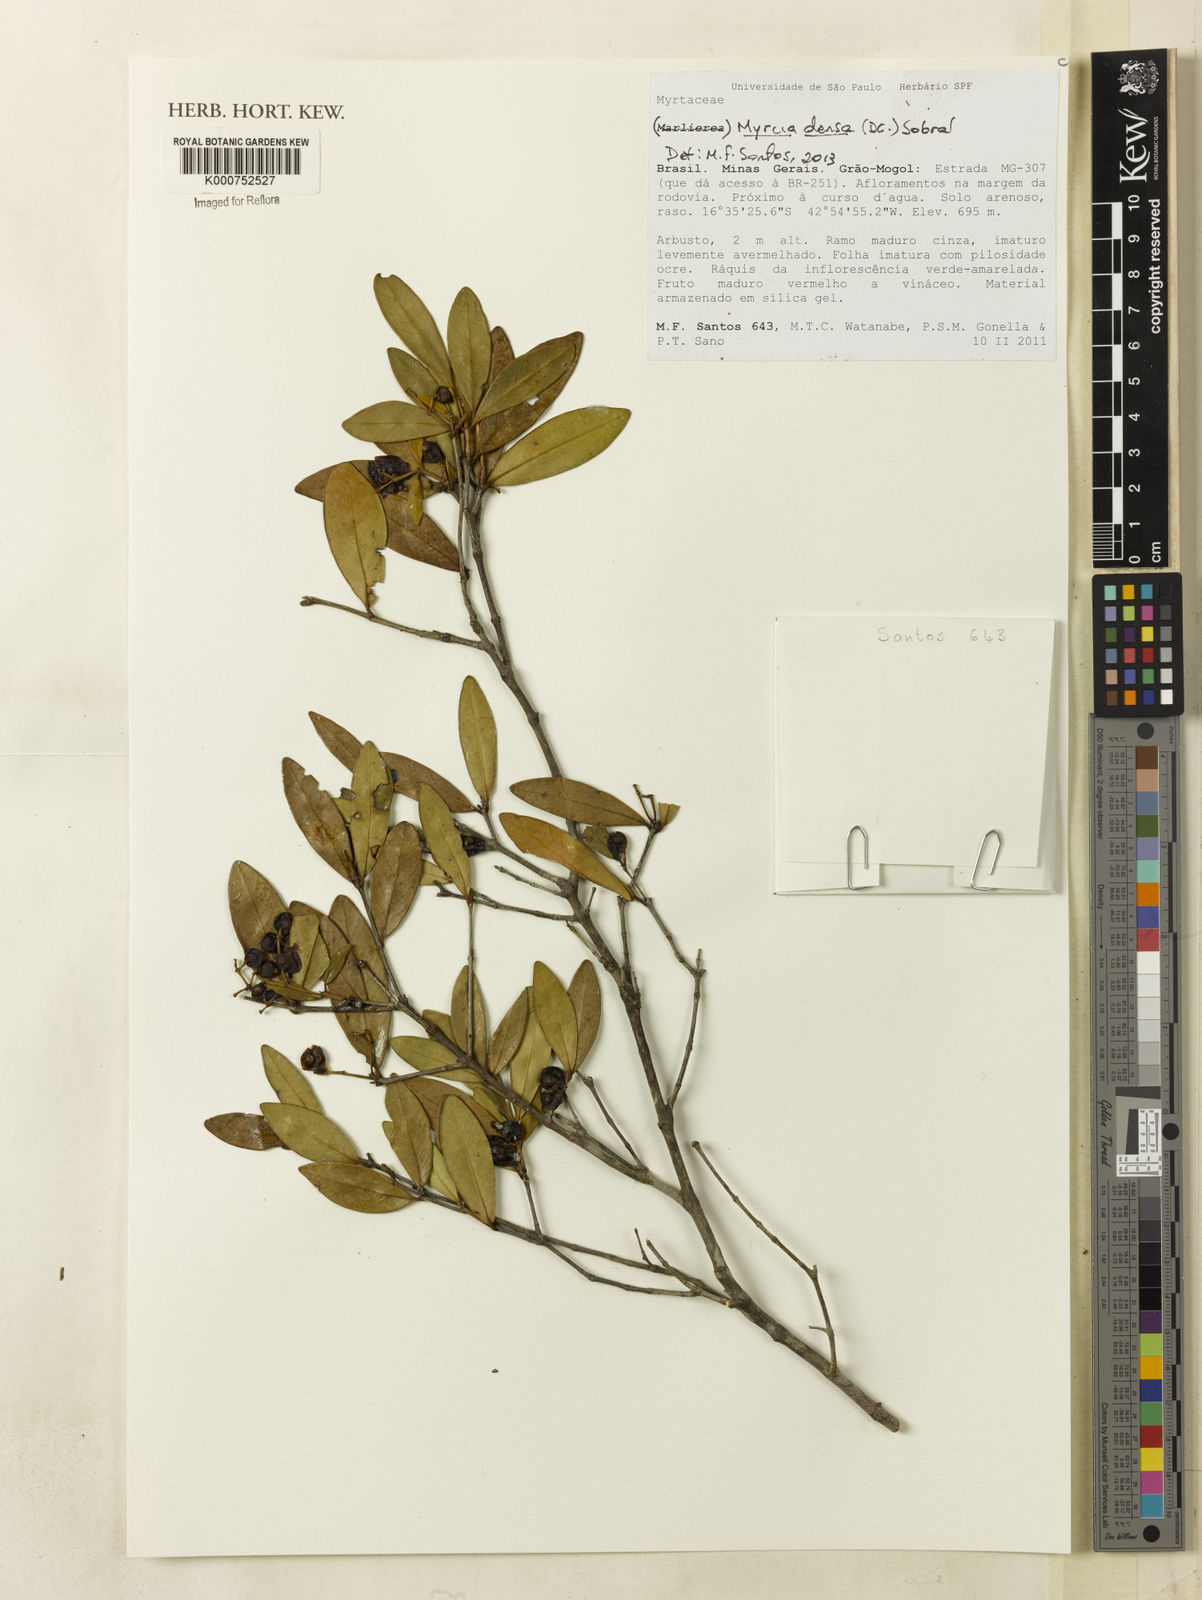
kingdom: Plantae
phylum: Tracheophyta
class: Magnoliopsida
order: Myrtales
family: Myrtaceae
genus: Myrcia
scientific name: Myrcia densa
